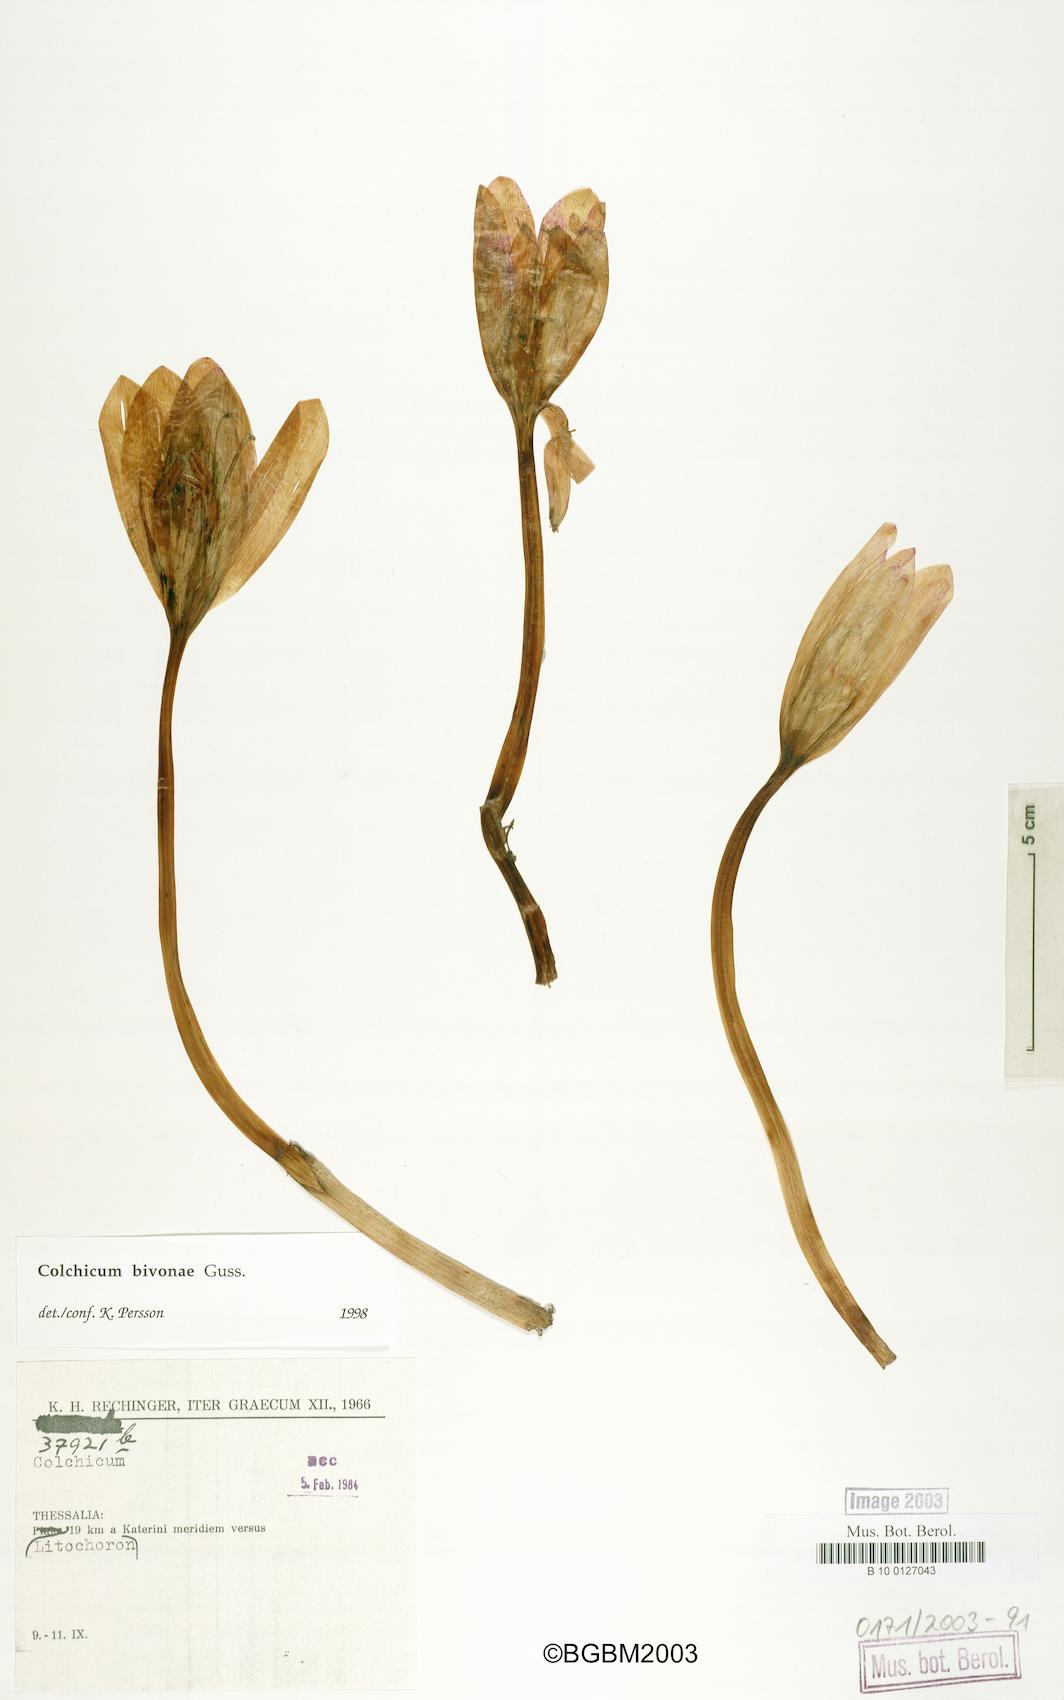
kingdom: Plantae
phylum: Tracheophyta
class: Liliopsida
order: Liliales
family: Colchicaceae
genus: Colchicum
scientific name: Colchicum bivonae
